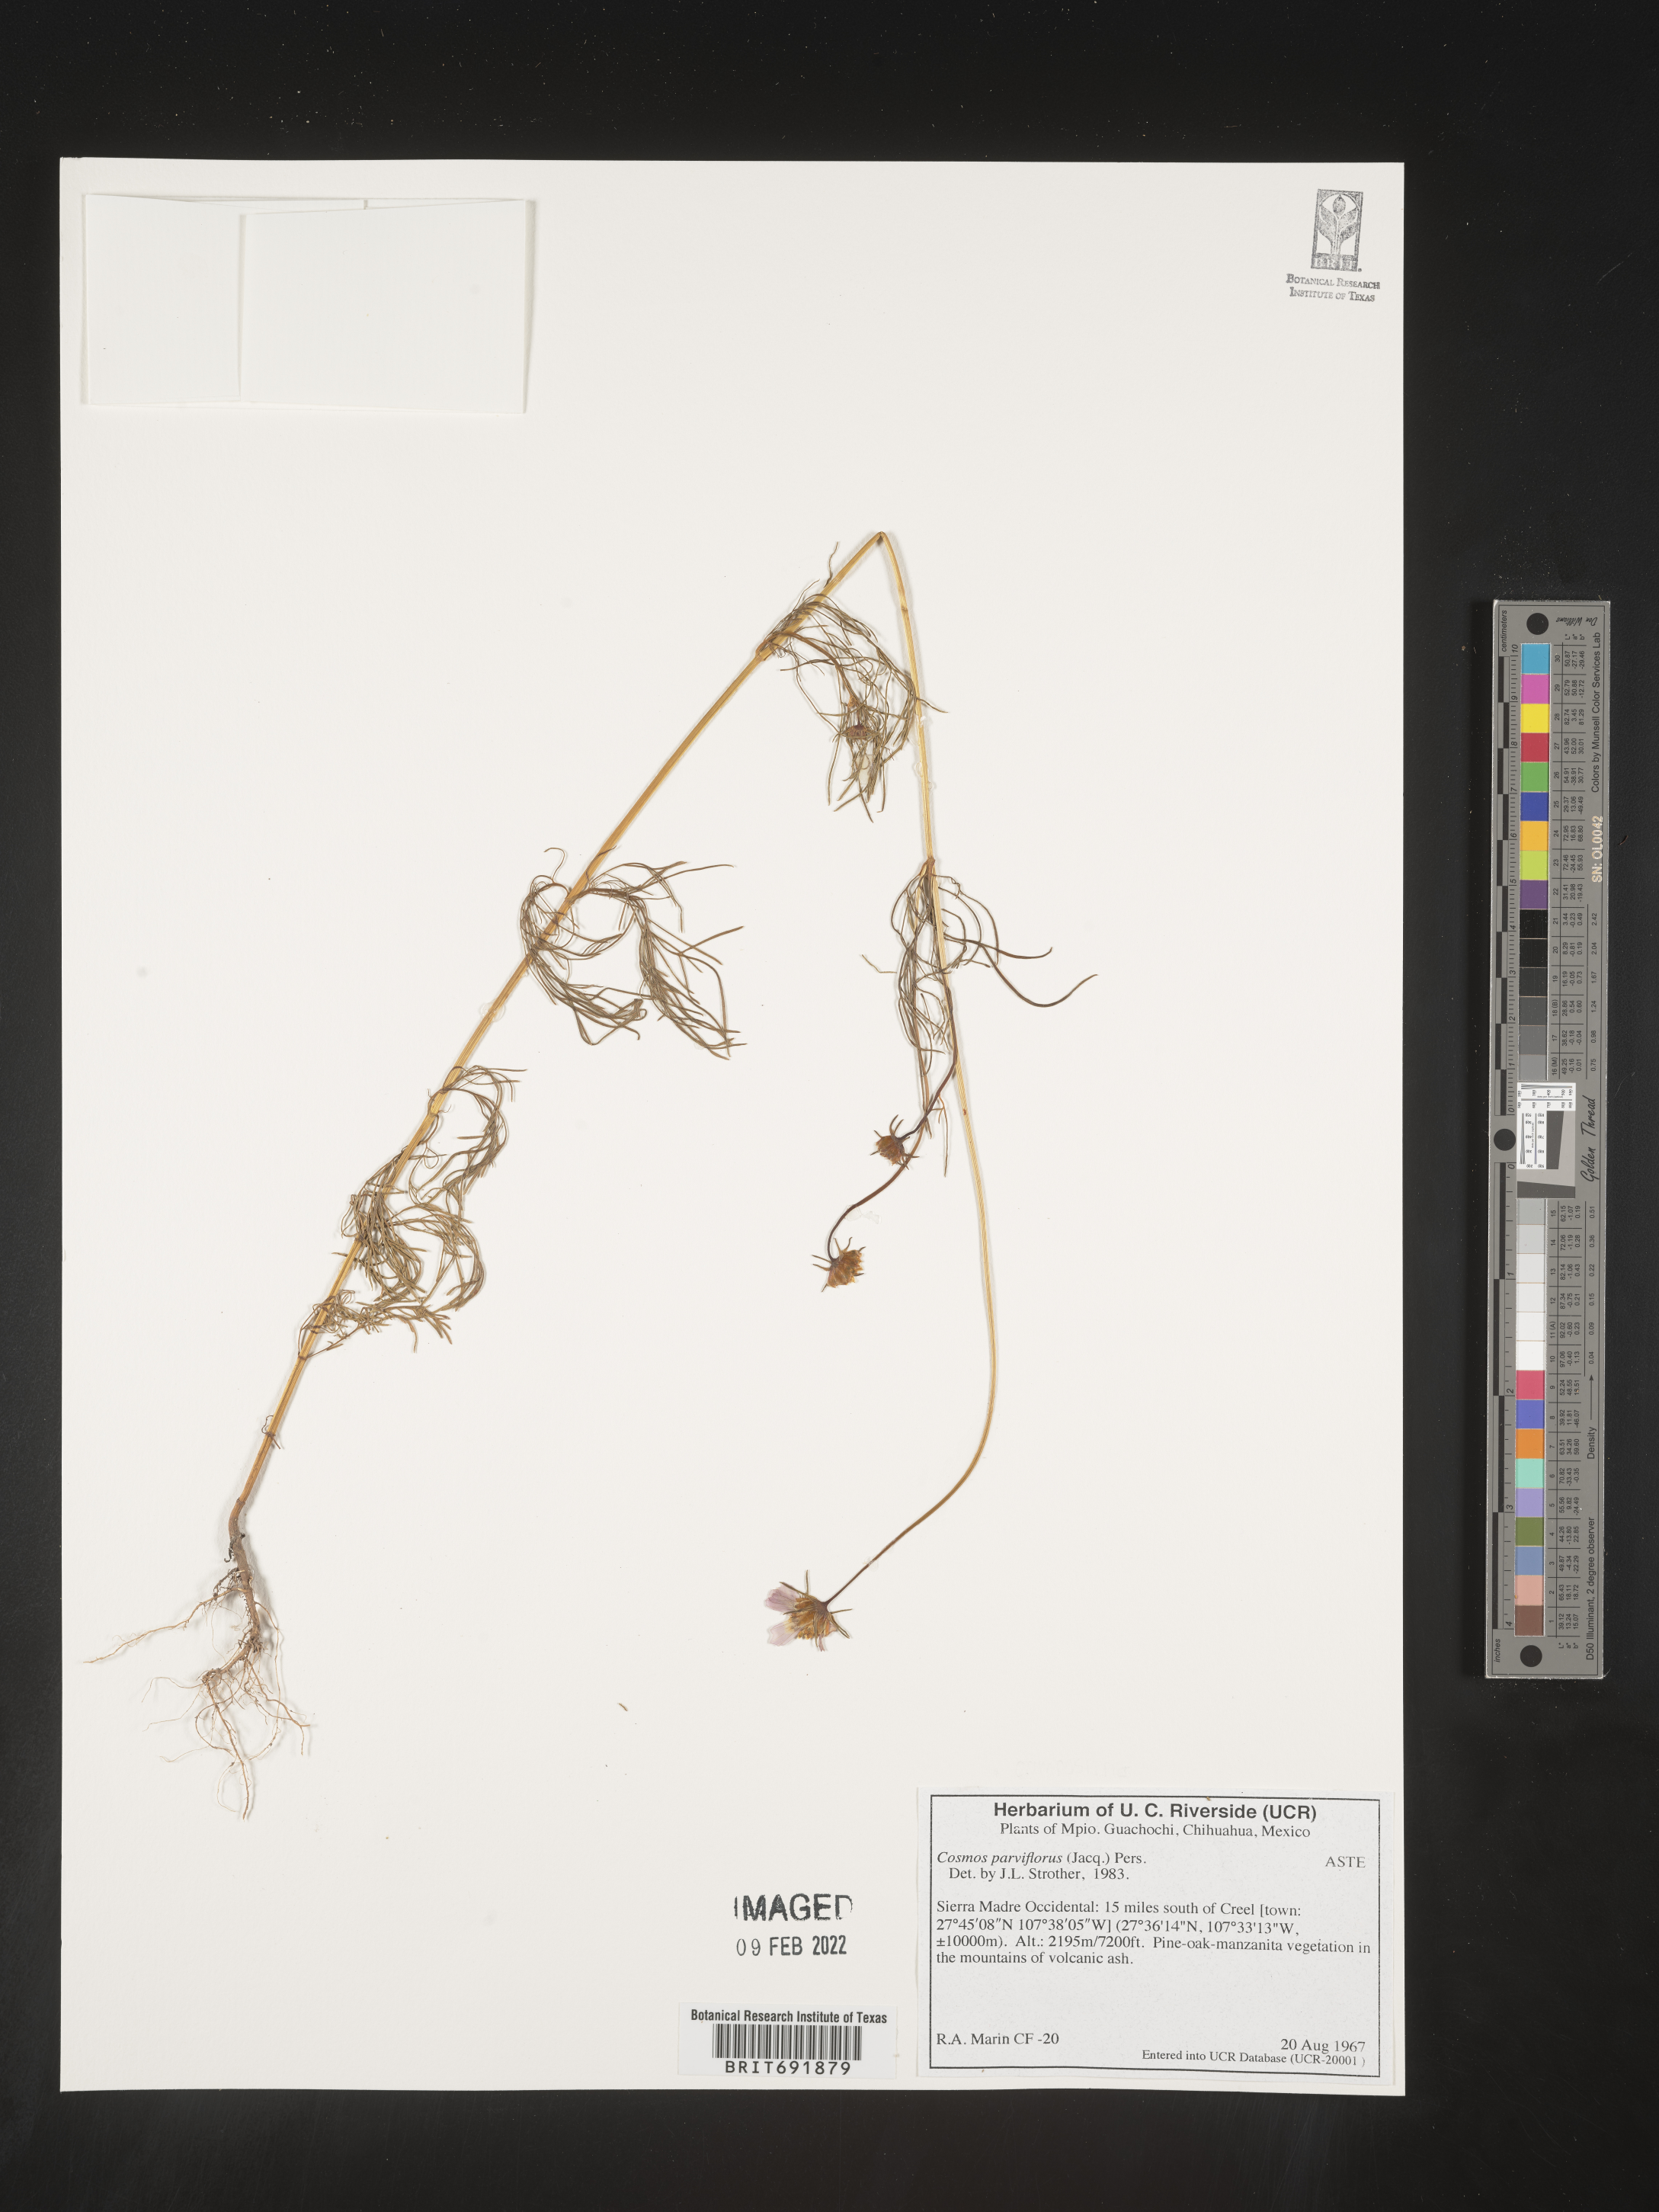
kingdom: Plantae
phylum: Tracheophyta
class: Magnoliopsida
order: Asterales
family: Asteraceae
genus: Cosmos
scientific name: Cosmos
